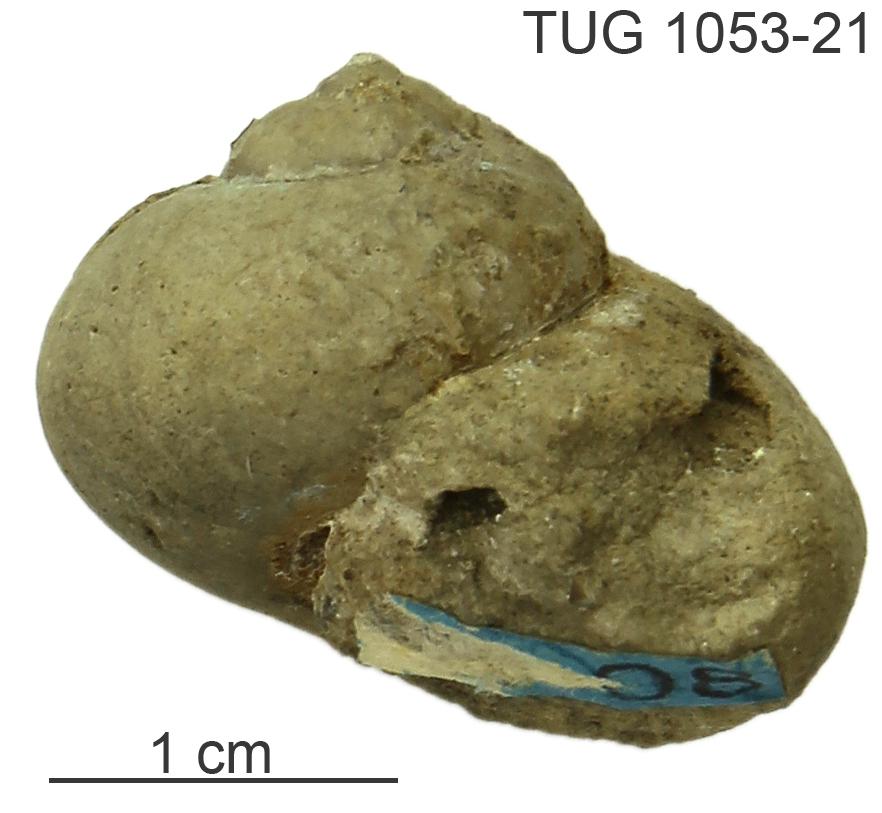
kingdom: Animalia
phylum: Mollusca
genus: Globispira
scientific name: Globispira
